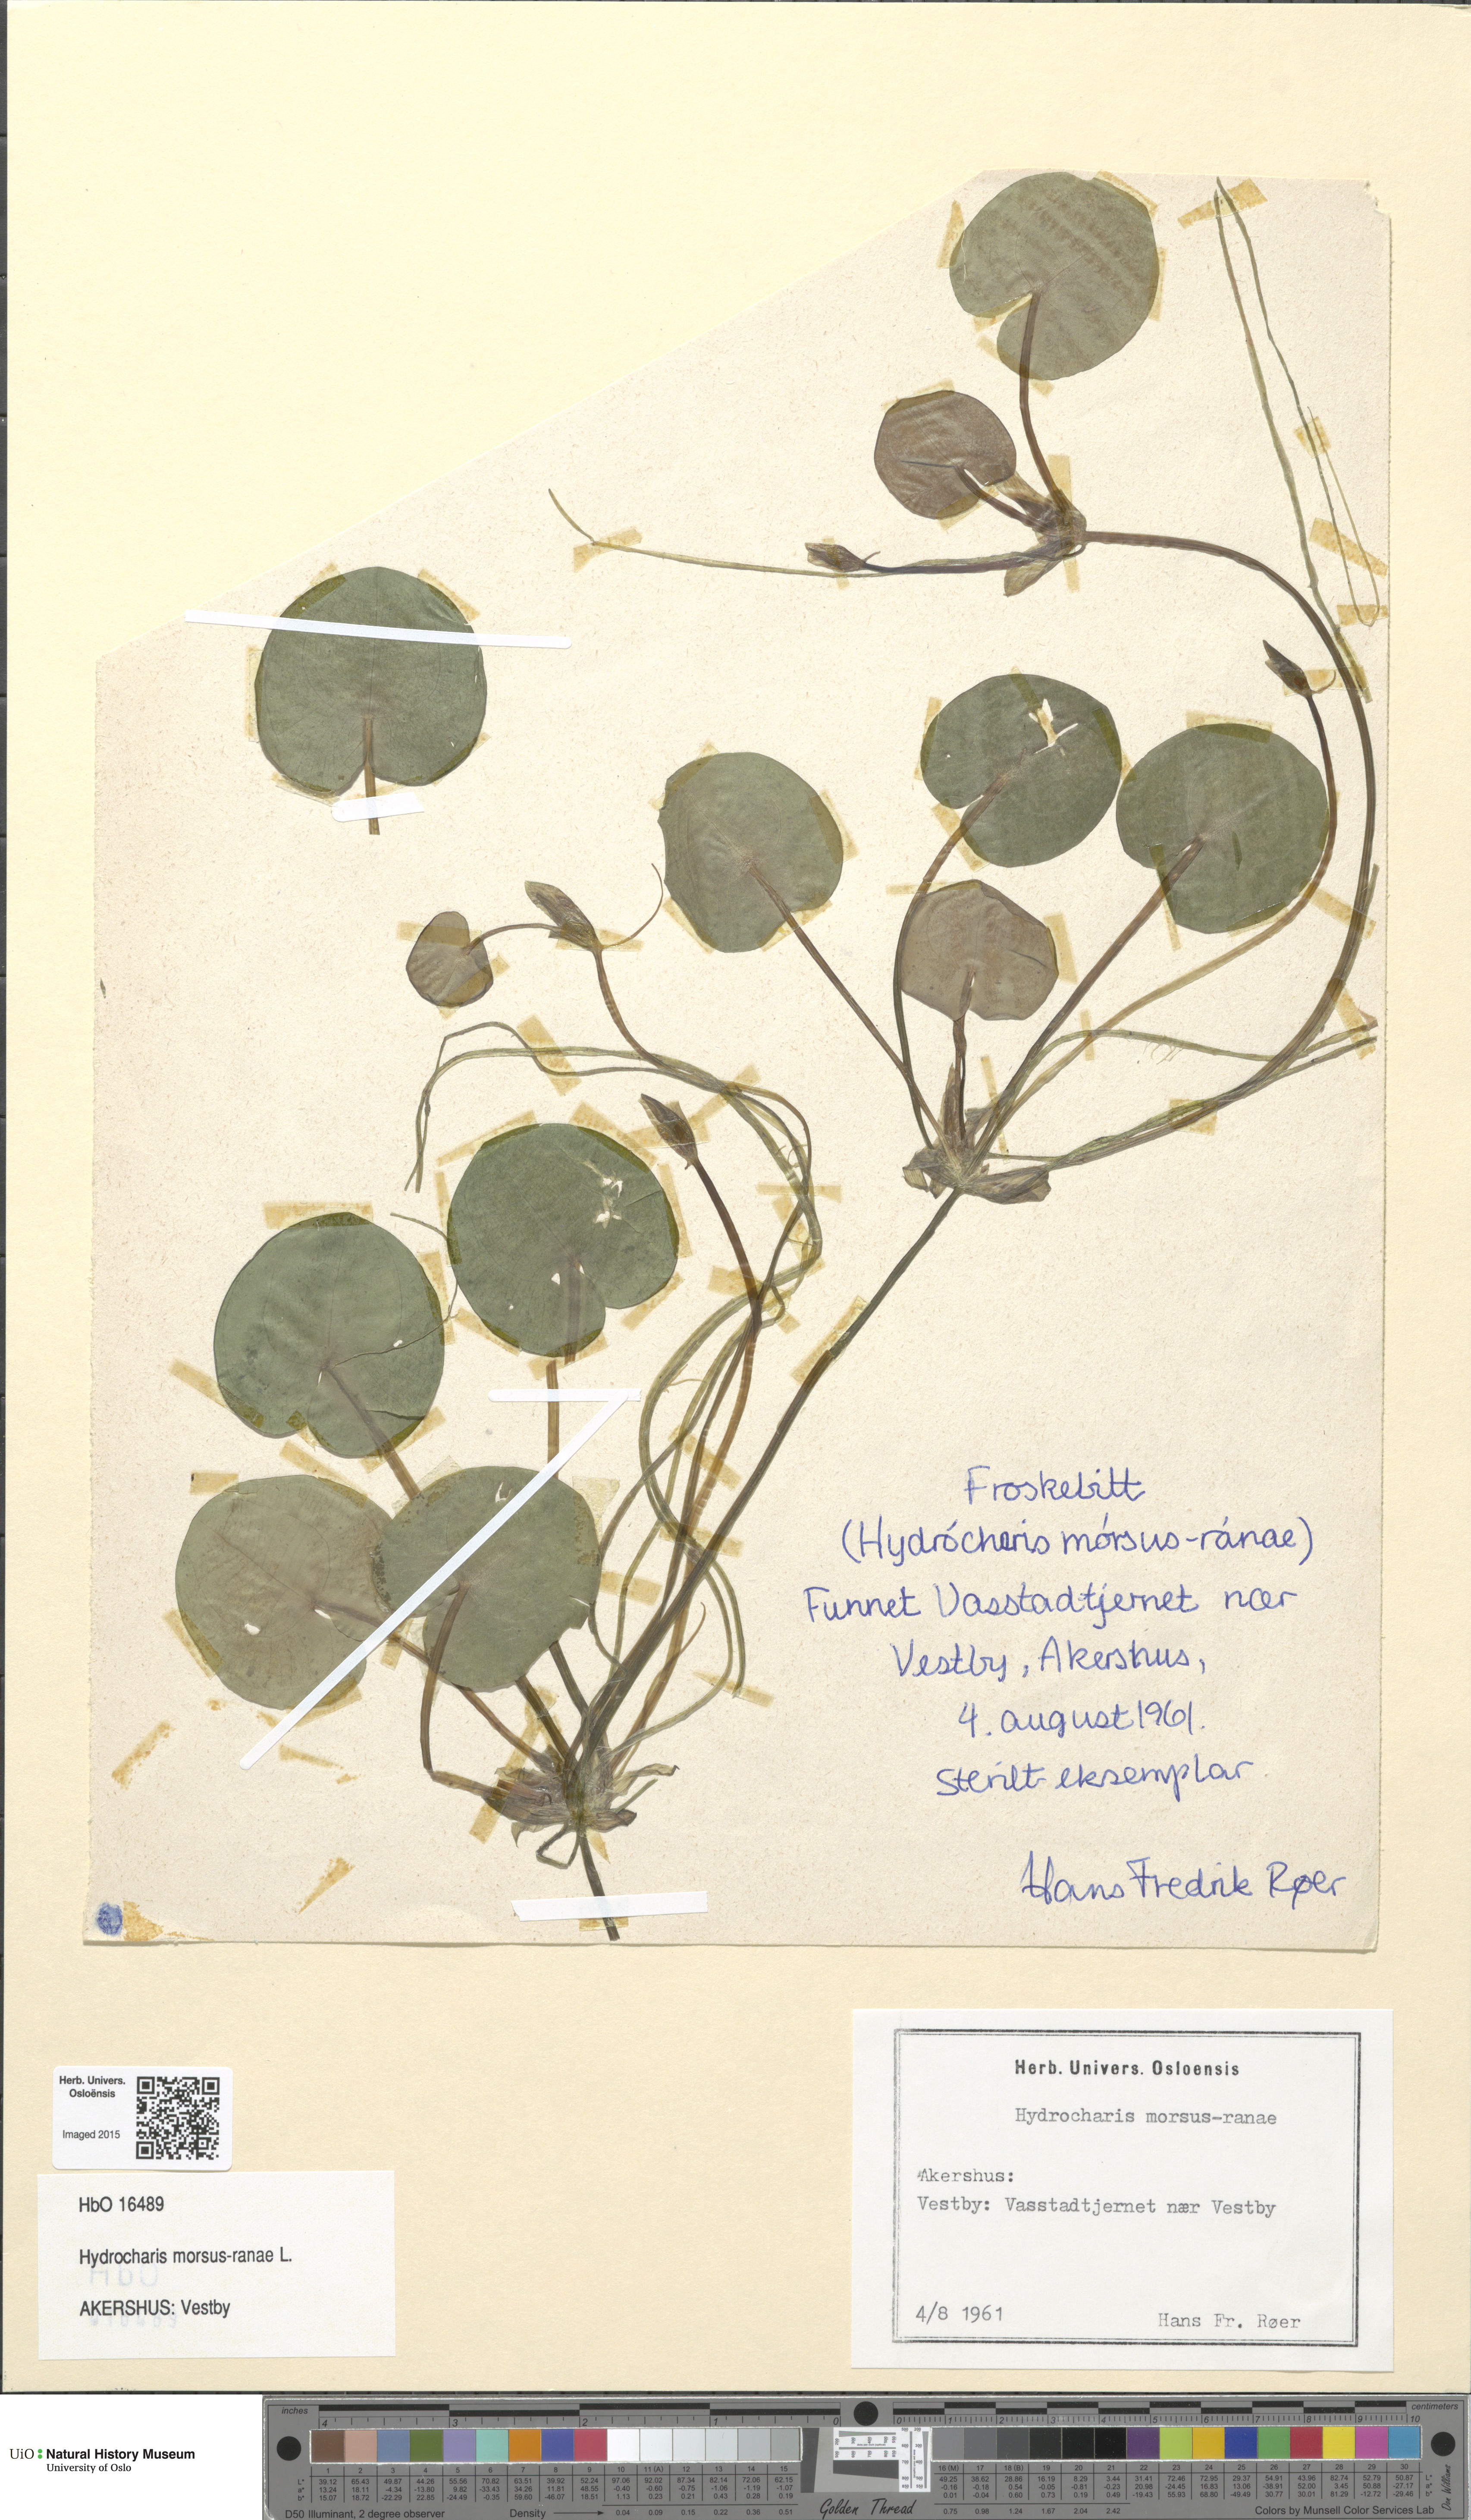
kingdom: Plantae
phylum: Tracheophyta
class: Liliopsida
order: Alismatales
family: Hydrocharitaceae
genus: Hydrocharis
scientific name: Hydrocharis morsus-ranae
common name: Frogbit
